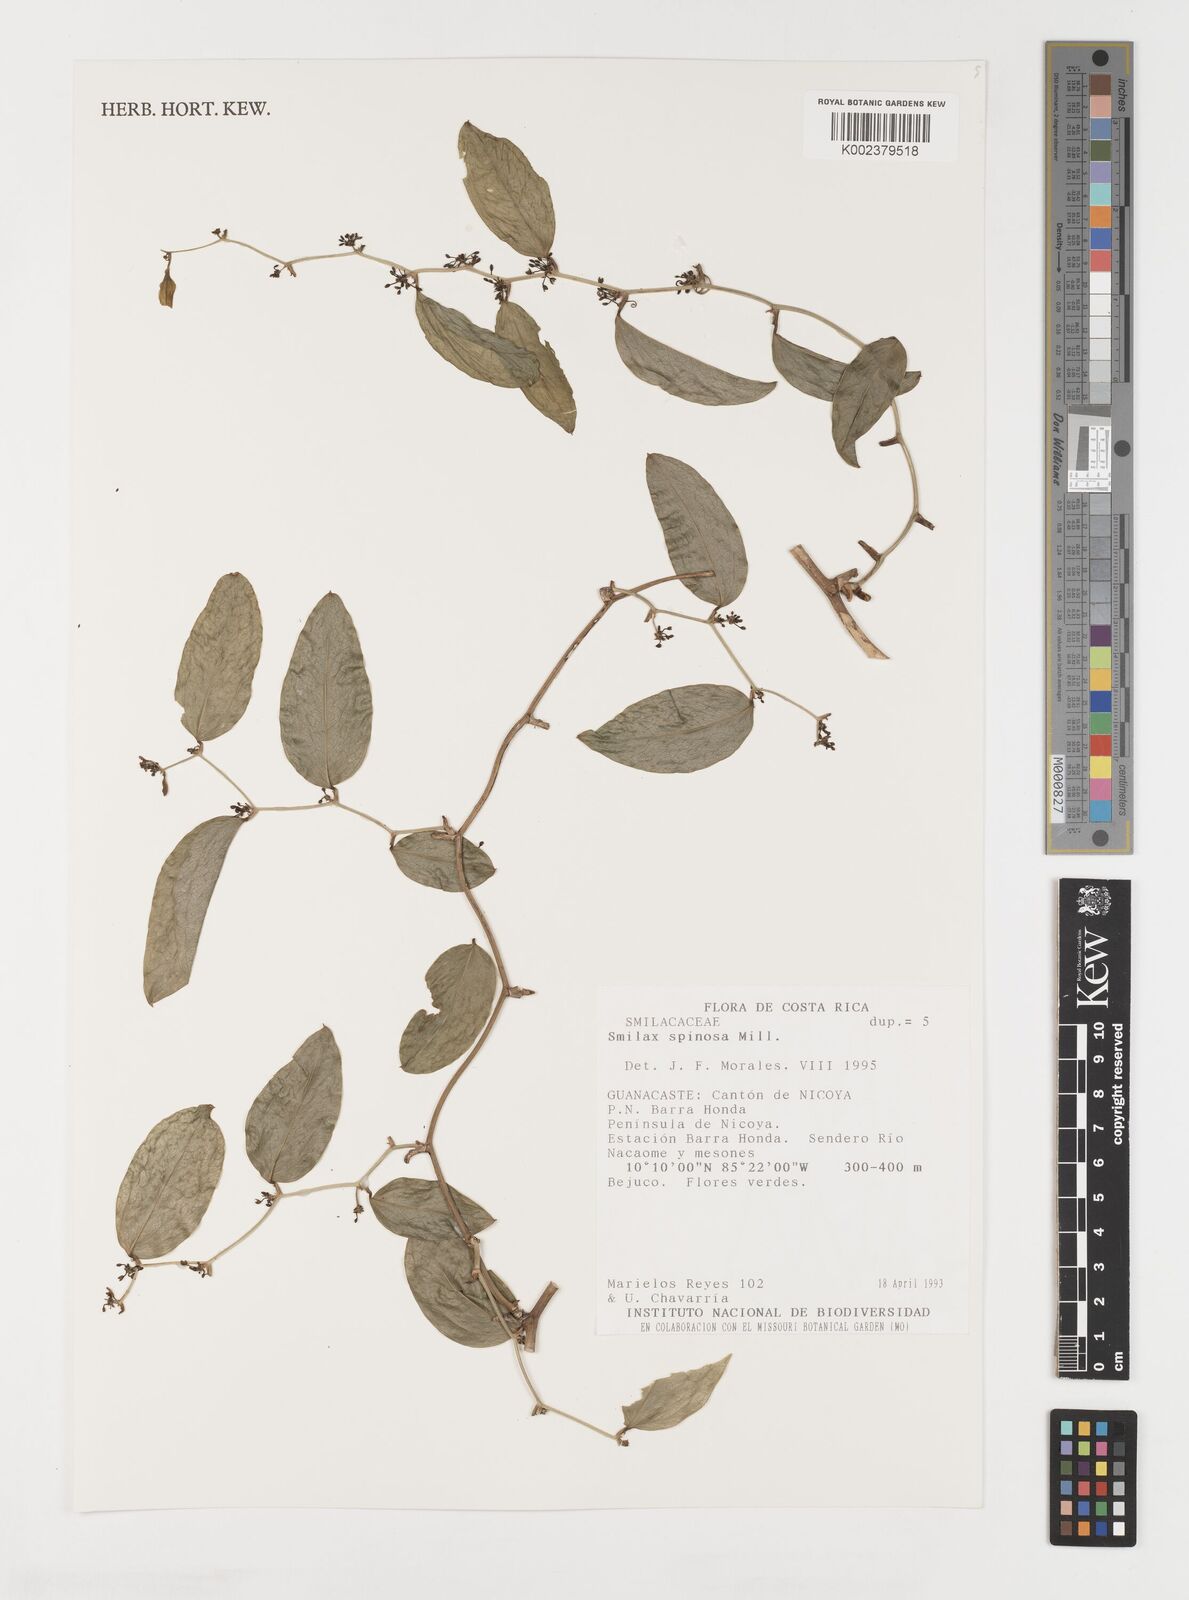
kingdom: Plantae
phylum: Tracheophyta
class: Liliopsida
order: Liliales
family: Smilacaceae
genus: Smilax
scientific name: Smilax spinosa
